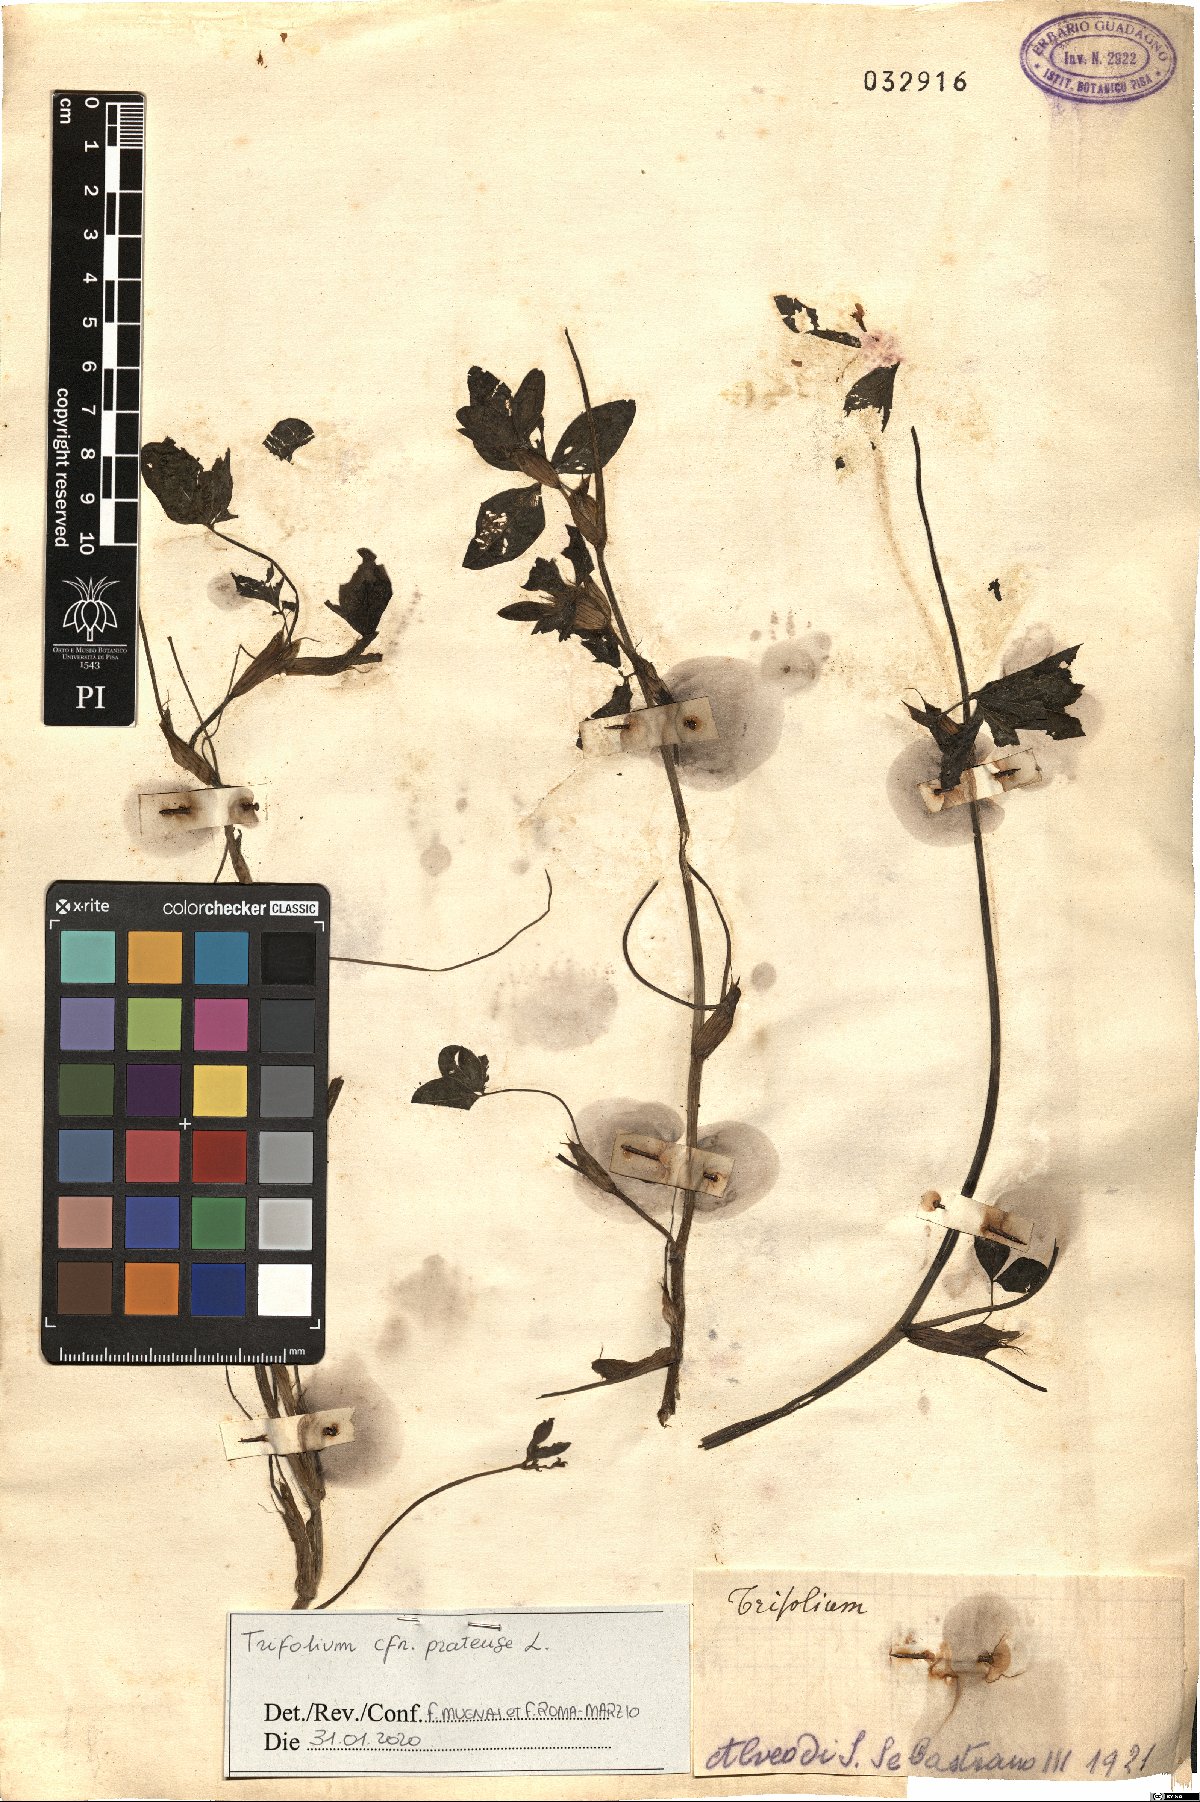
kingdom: Plantae
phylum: Tracheophyta
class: Magnoliopsida
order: Fabales
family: Fabaceae
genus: Trifolium
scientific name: Trifolium pratense
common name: Red clover
